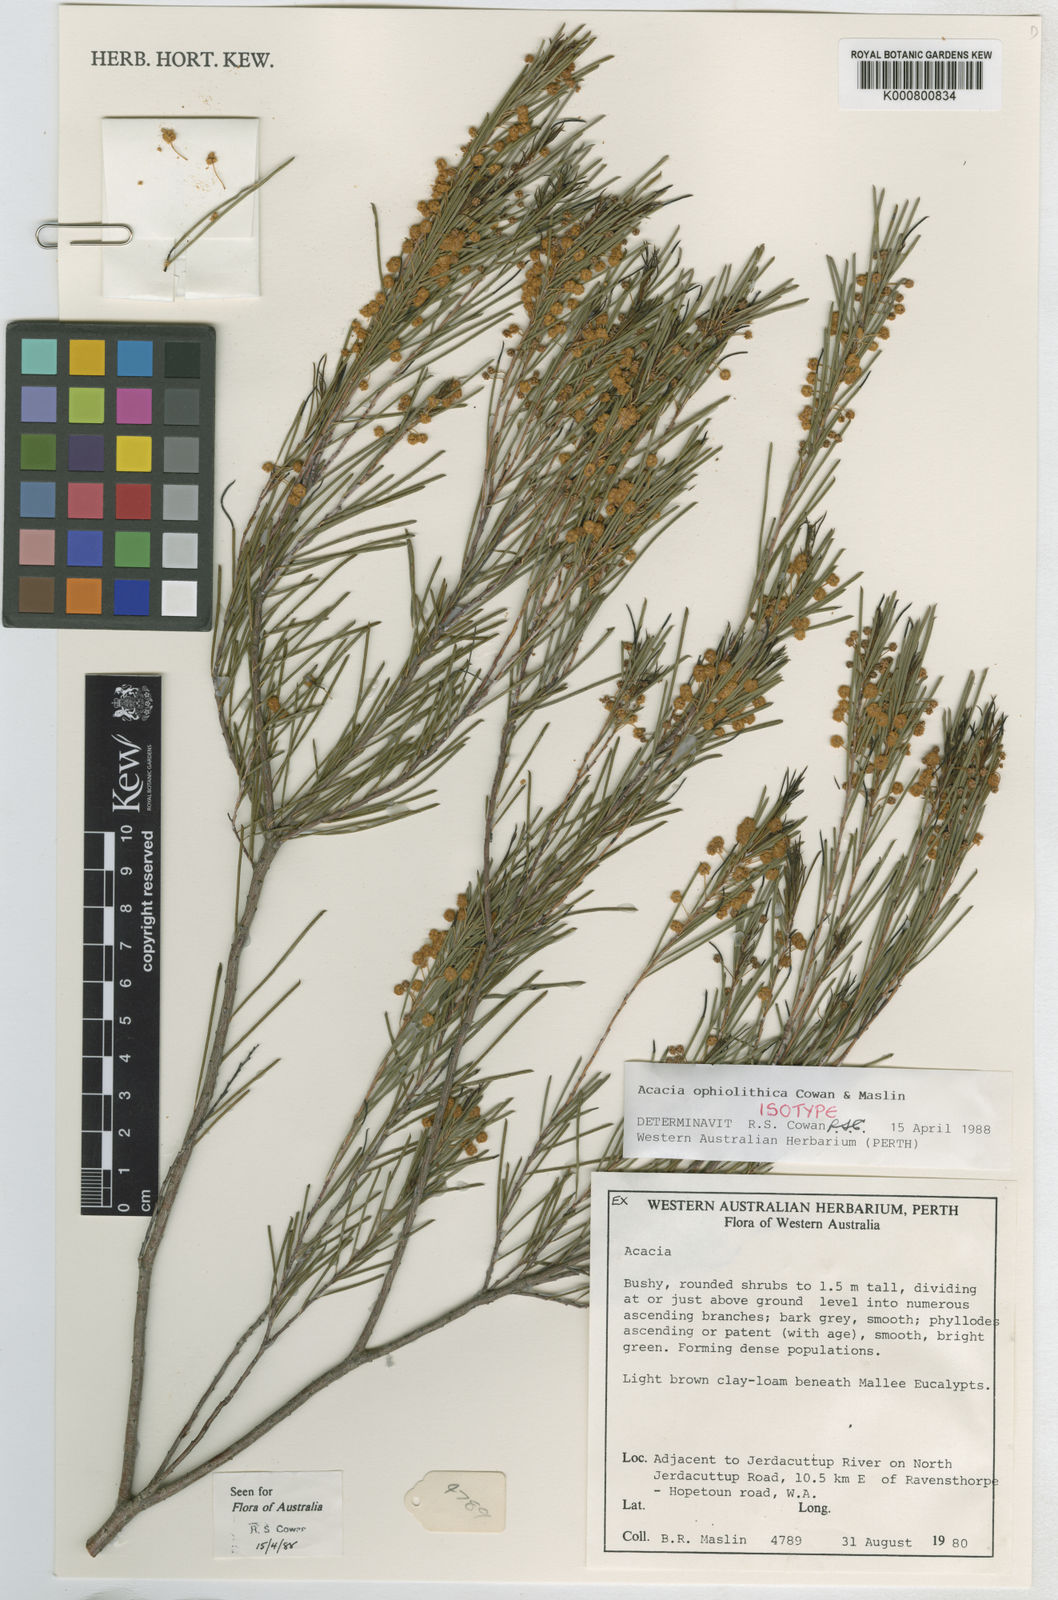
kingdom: Plantae
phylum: Tracheophyta
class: Magnoliopsida
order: Fabales
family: Fabaceae
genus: Acacia
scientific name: Acacia ophiolithica
